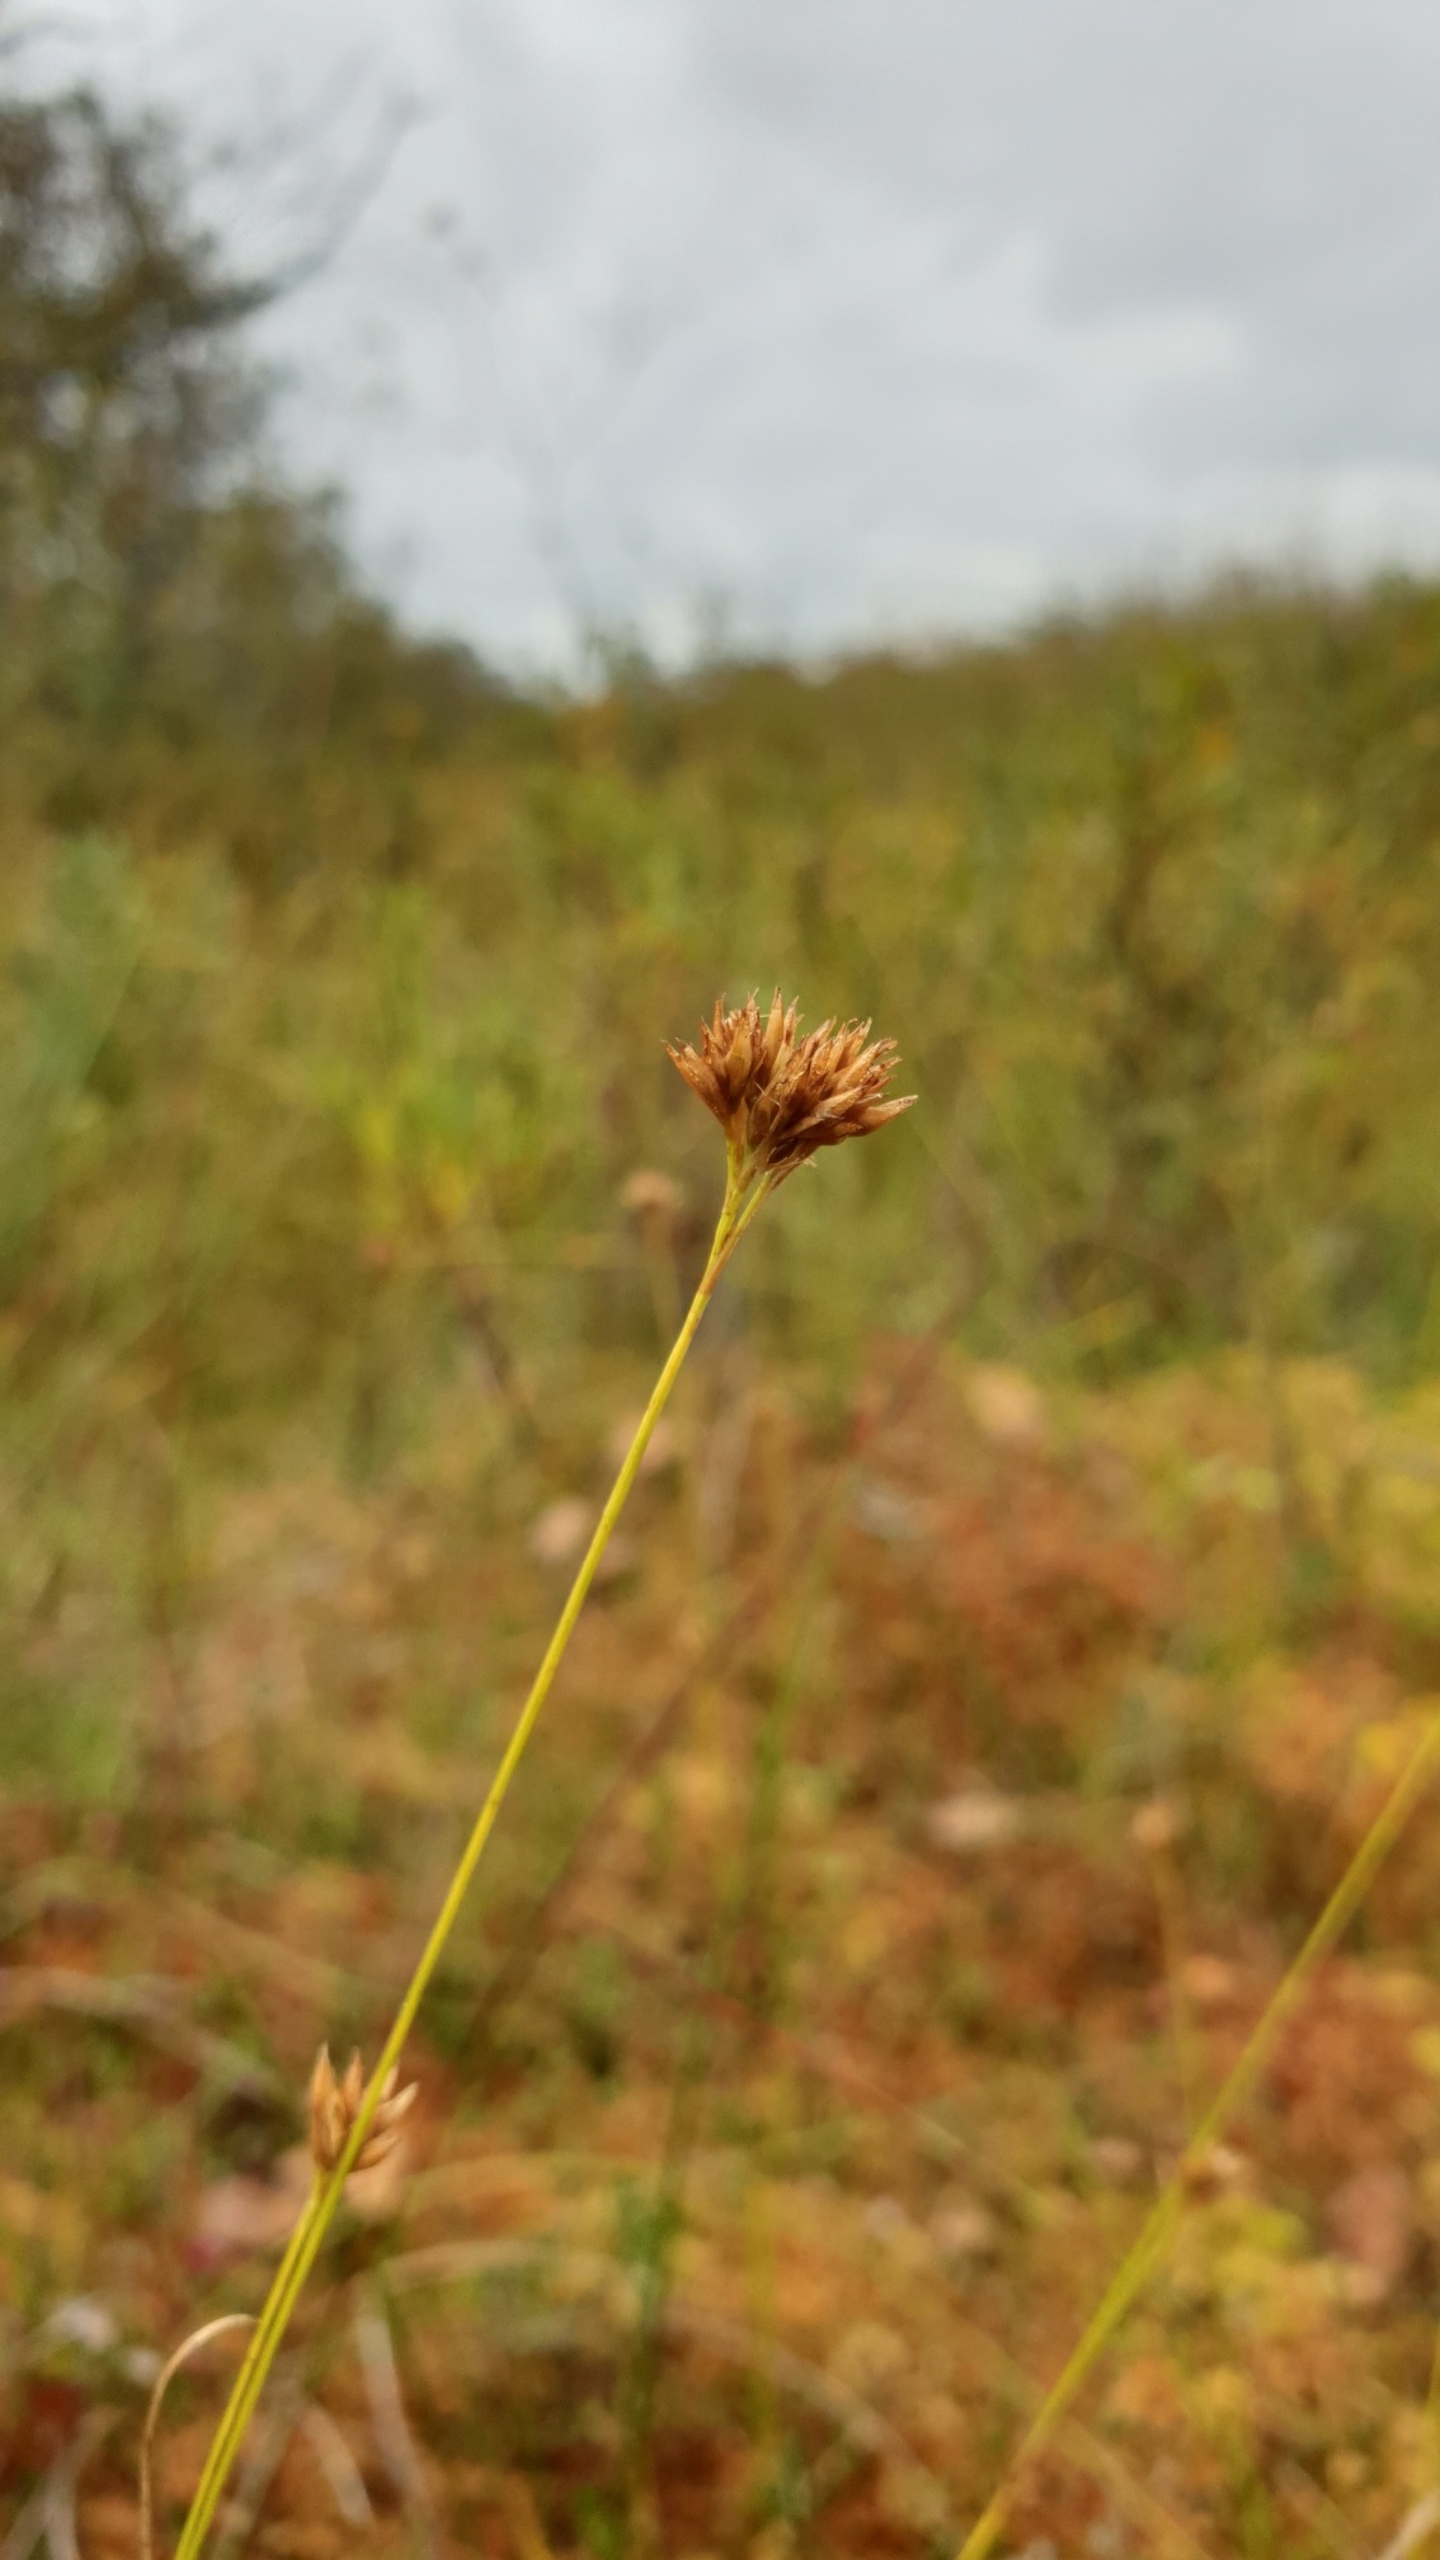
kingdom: Plantae
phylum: Tracheophyta
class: Liliopsida
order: Poales
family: Cyperaceae
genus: Rhynchospora
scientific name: Rhynchospora alba
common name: Hvid næbfrø
